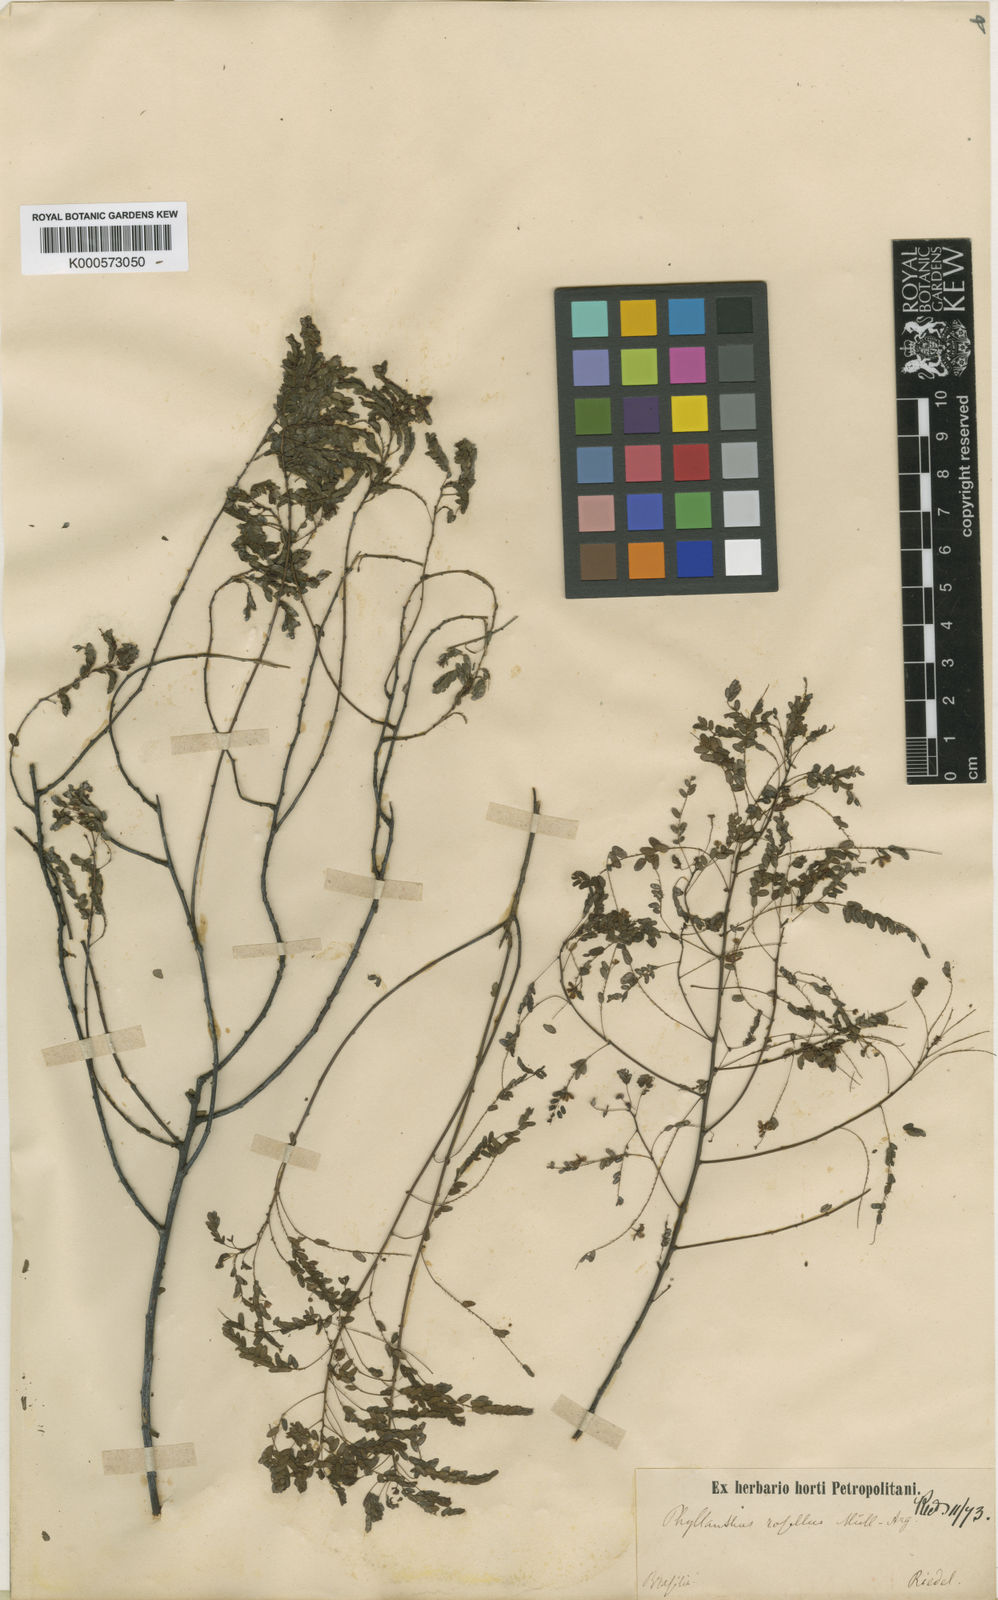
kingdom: Plantae
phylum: Tracheophyta
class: Magnoliopsida
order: Malpighiales
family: Phyllanthaceae
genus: Phyllanthus
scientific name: Phyllanthus
